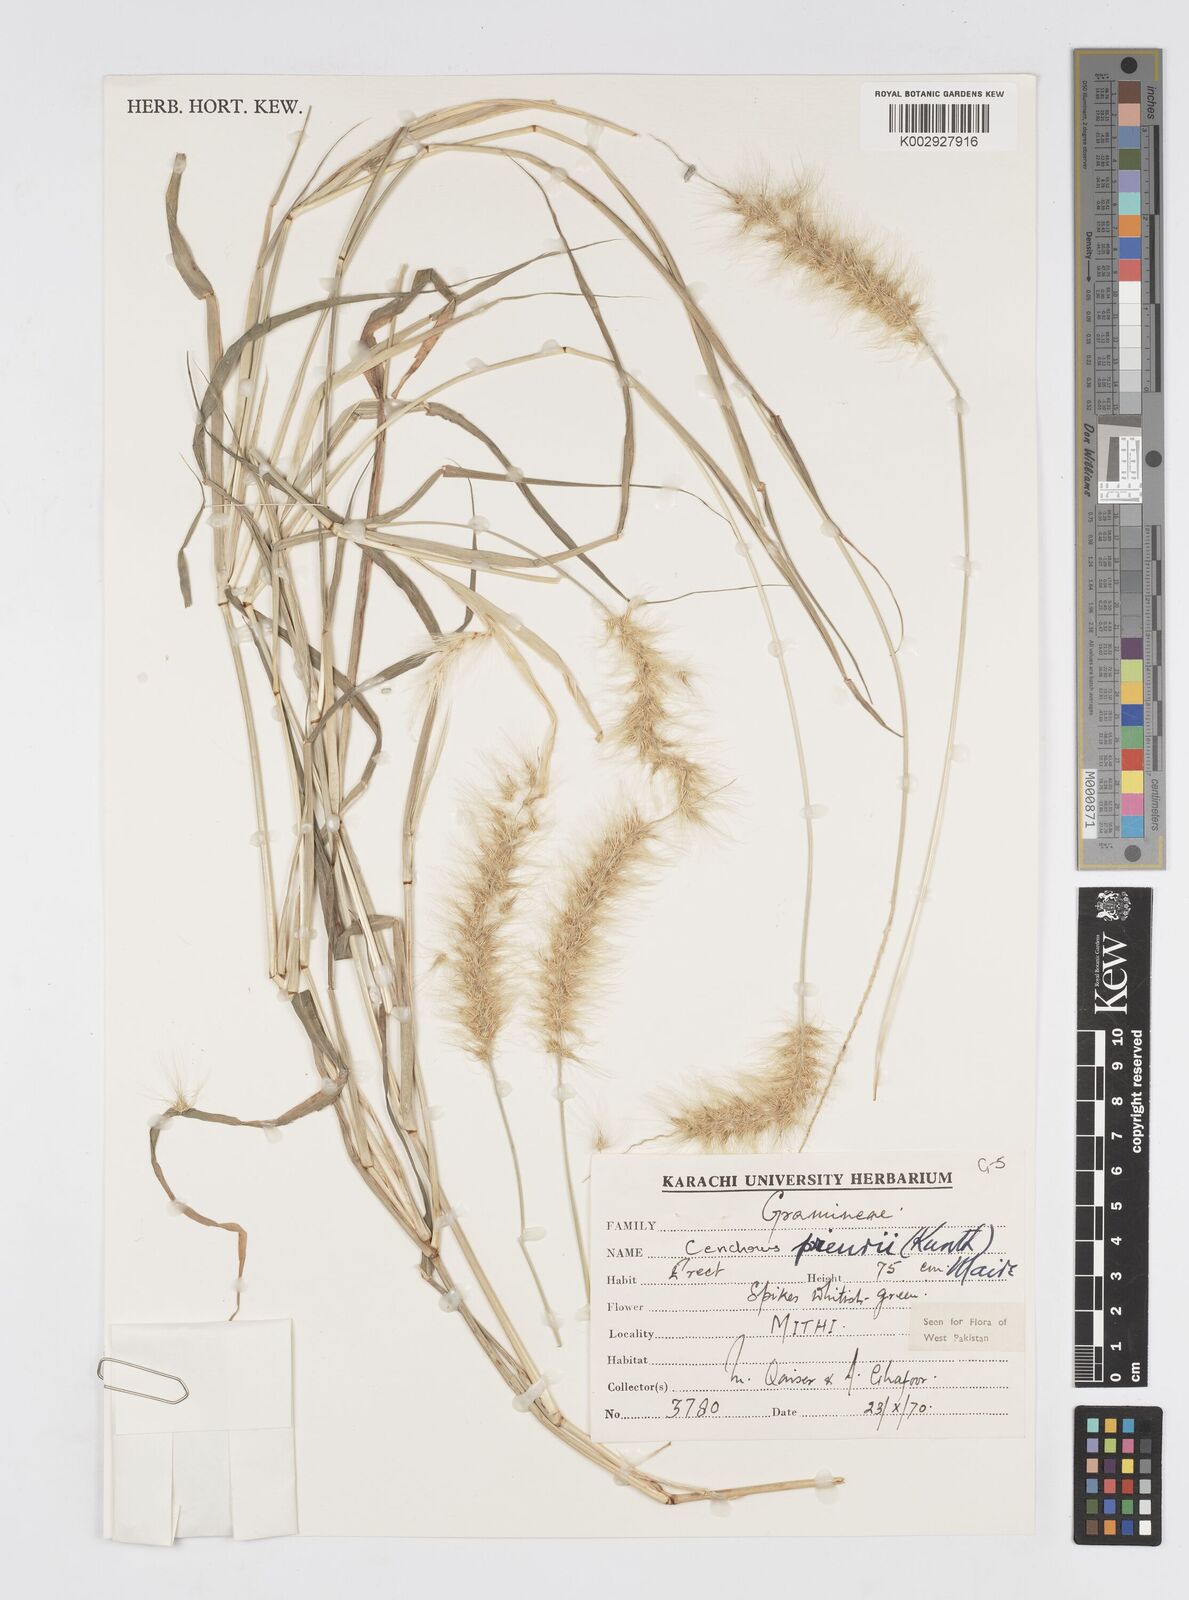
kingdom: Plantae
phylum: Tracheophyta
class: Liliopsida
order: Poales
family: Poaceae
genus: Cenchrus
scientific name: Cenchrus prieurii
